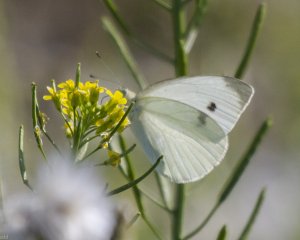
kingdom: Animalia
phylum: Arthropoda
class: Insecta
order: Lepidoptera
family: Pieridae
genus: Pieris
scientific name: Pieris rapae
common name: Cabbage White
